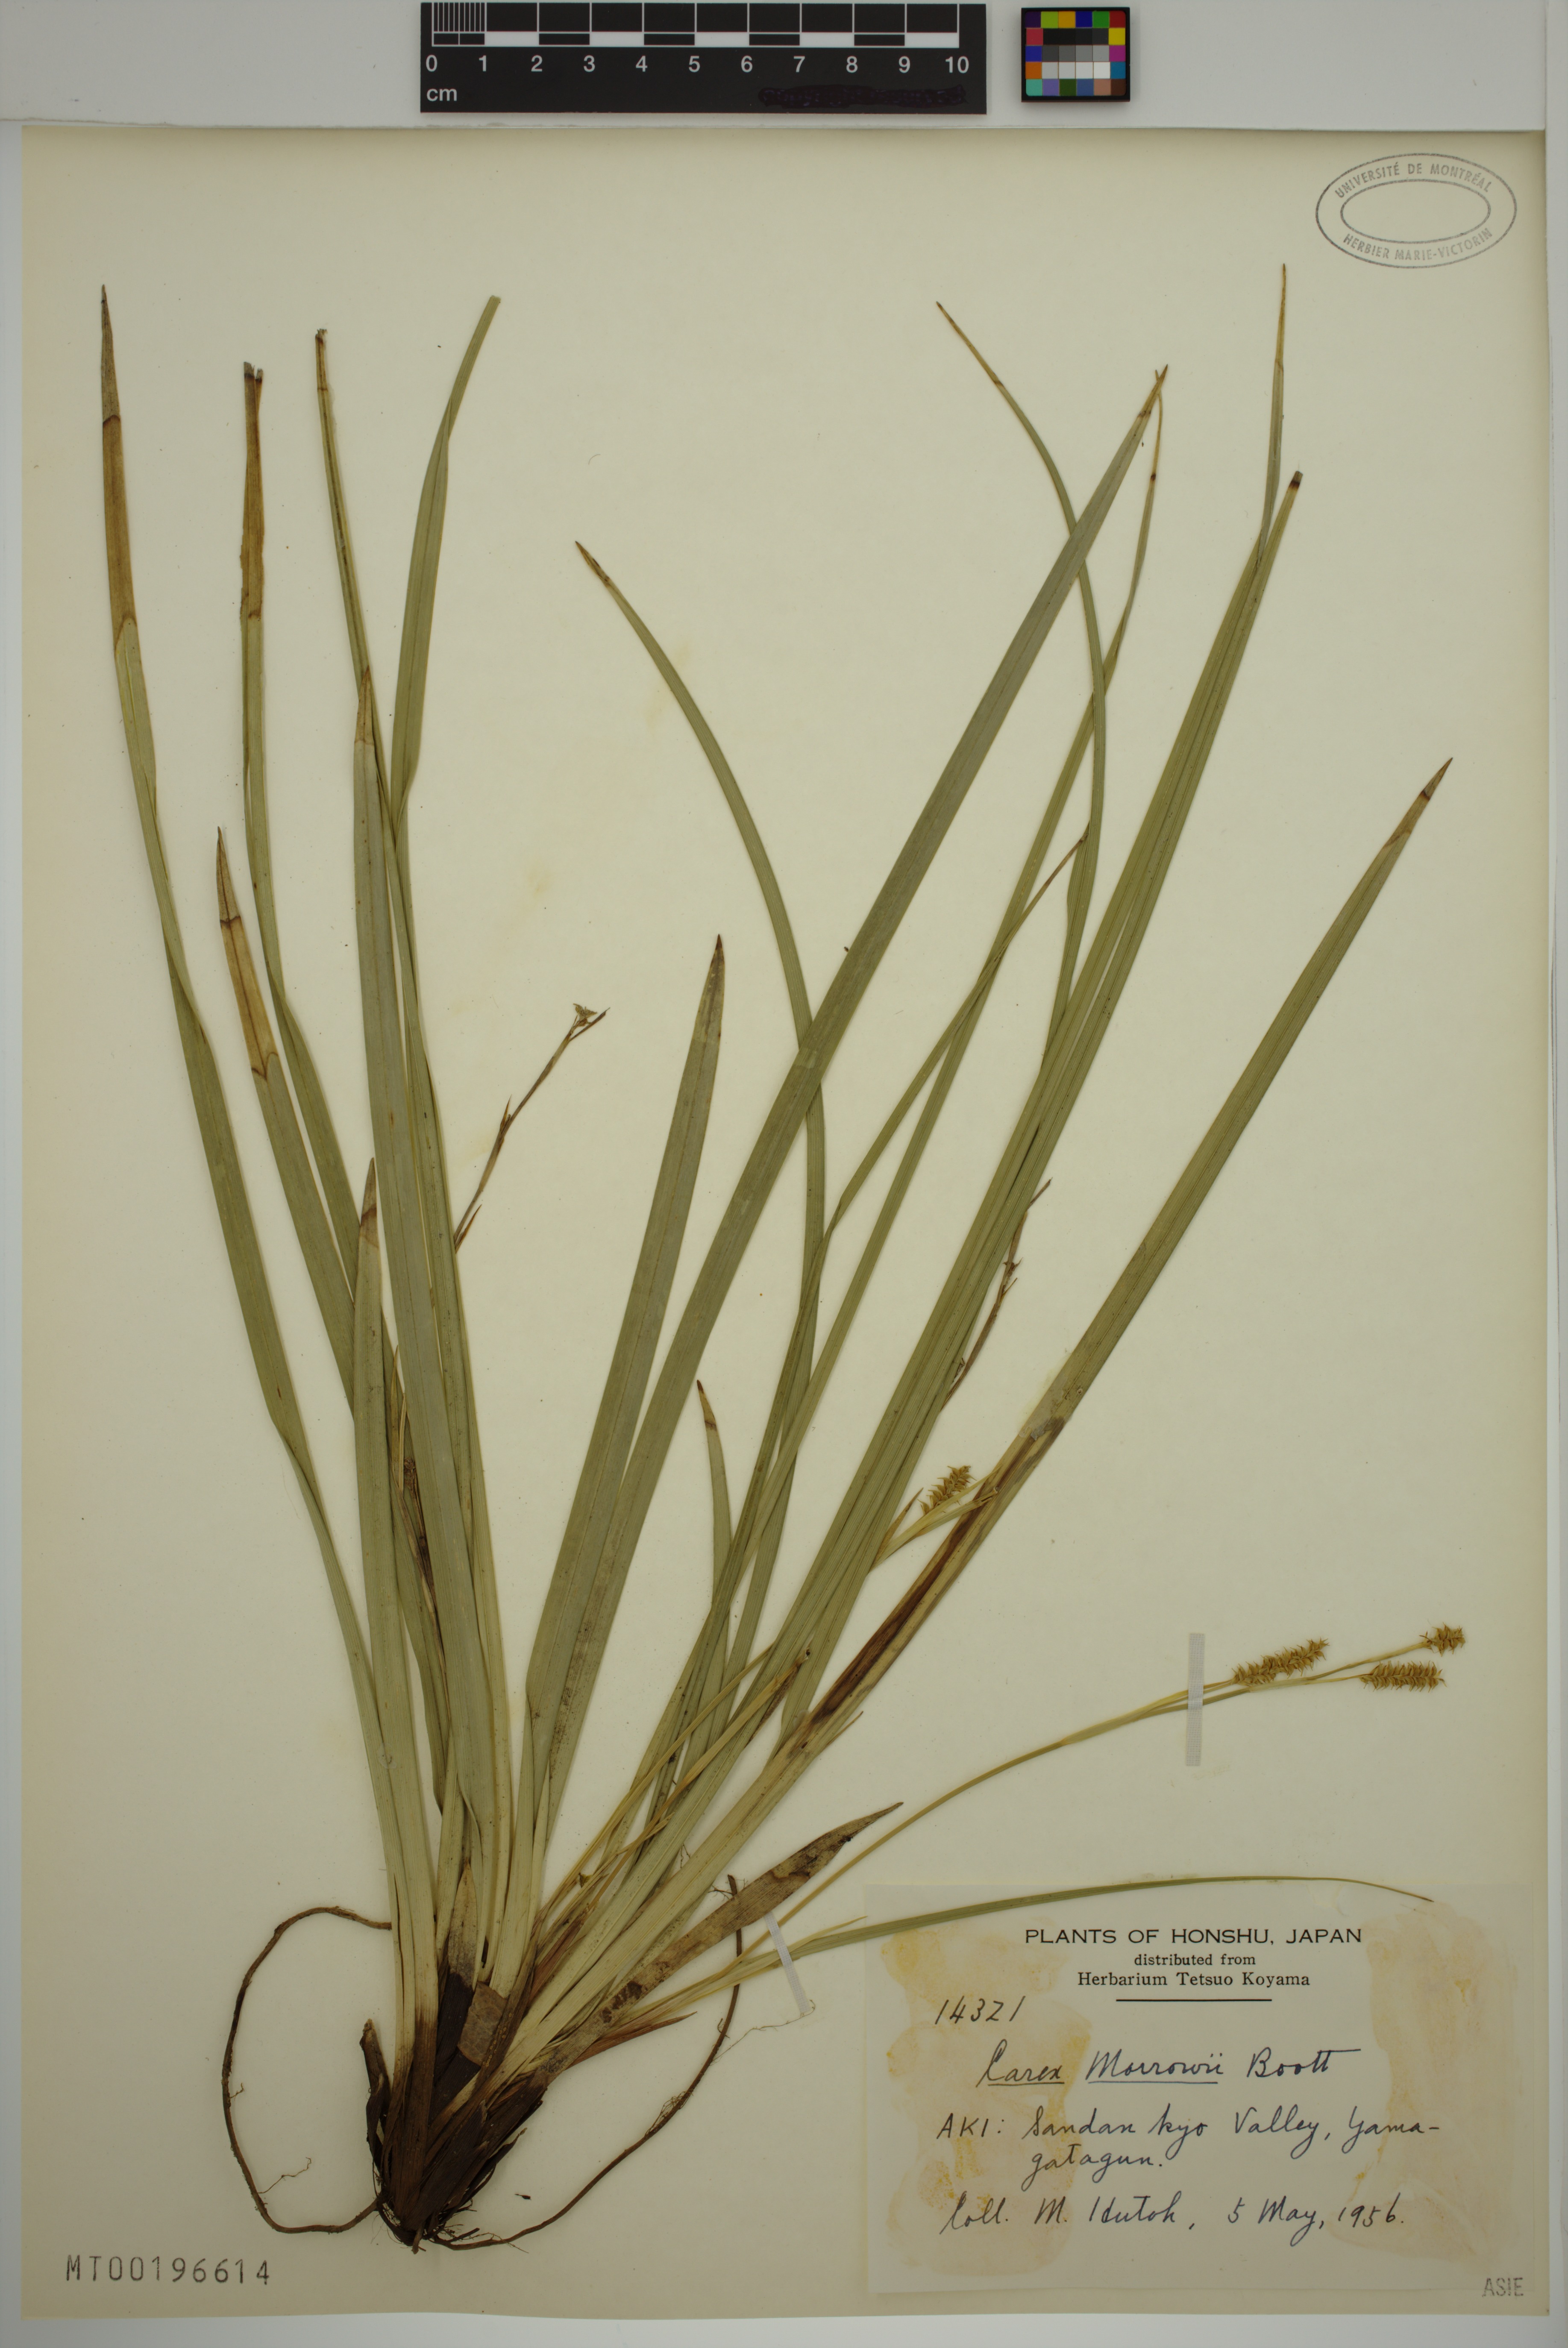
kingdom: Plantae
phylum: Tracheophyta
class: Liliopsida
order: Poales
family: Cyperaceae
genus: Carex
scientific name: Carex morrowii
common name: Japanese sedge
